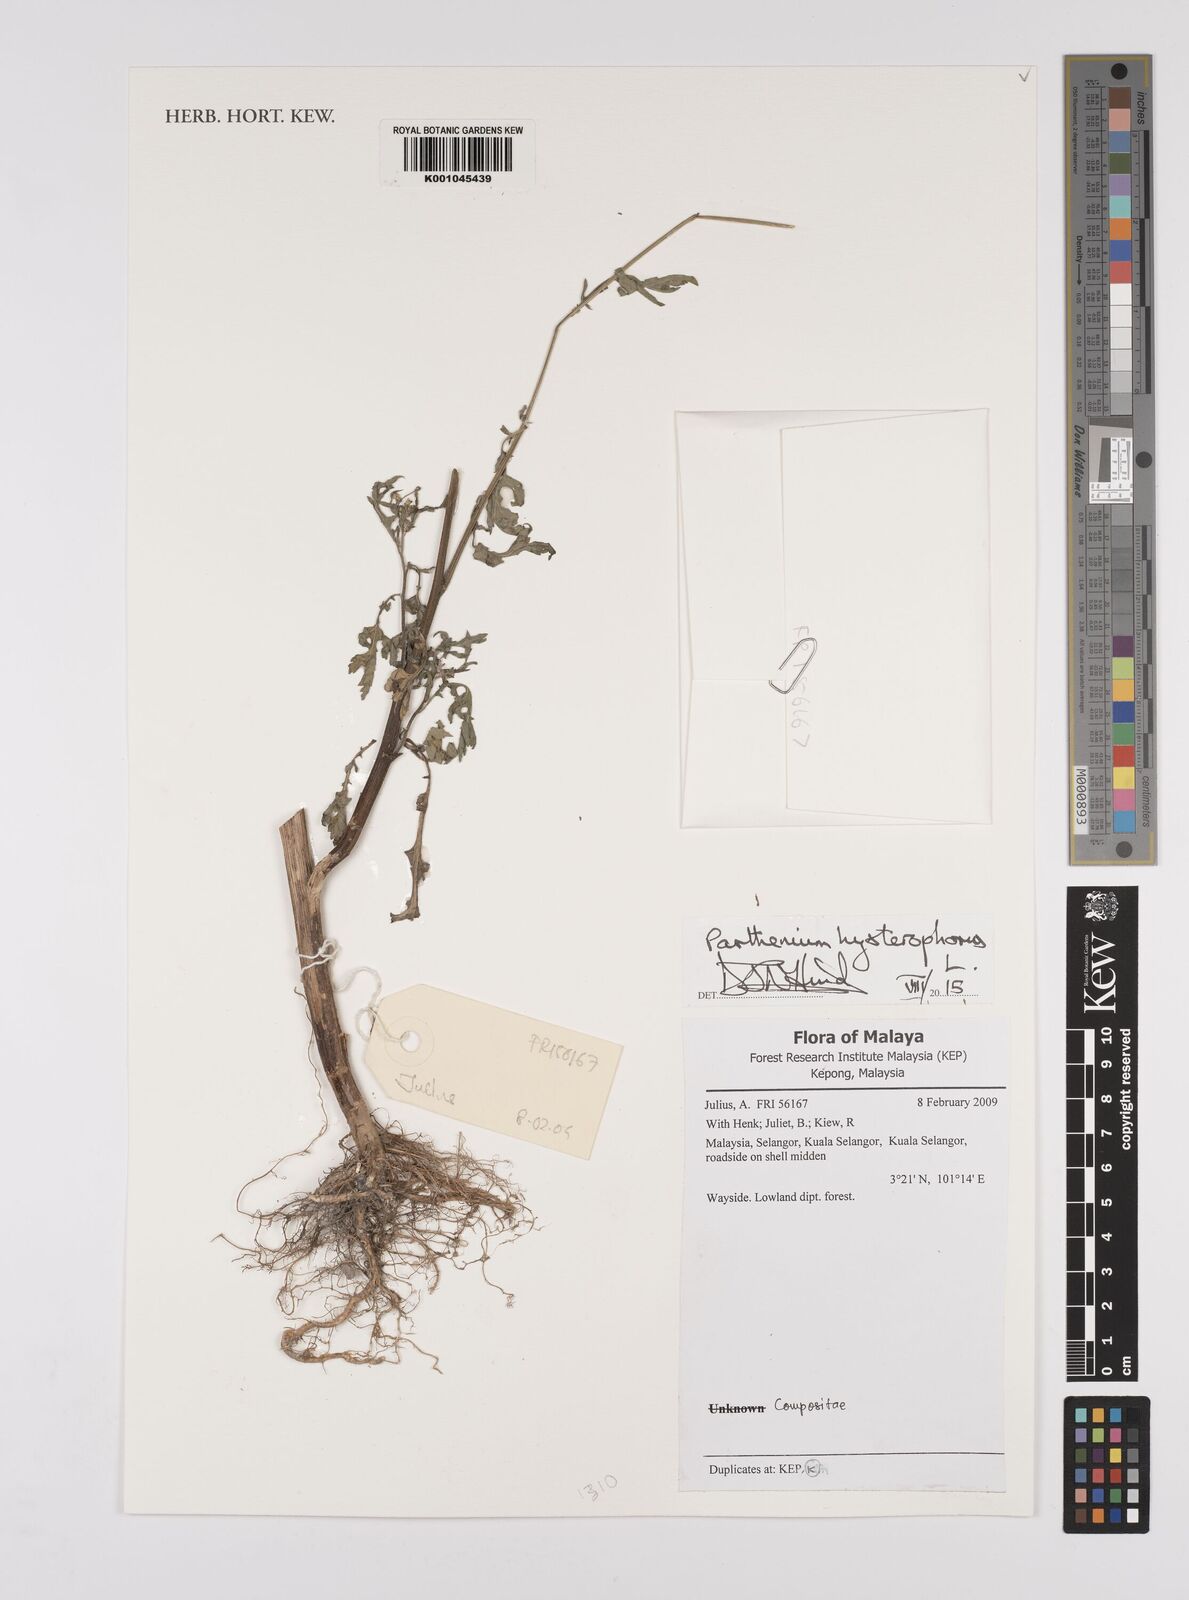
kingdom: Plantae
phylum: Tracheophyta
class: Magnoliopsida
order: Asterales
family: Asteraceae
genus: Parthenium
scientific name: Parthenium hysterophorus
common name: Santa maria feverfew
